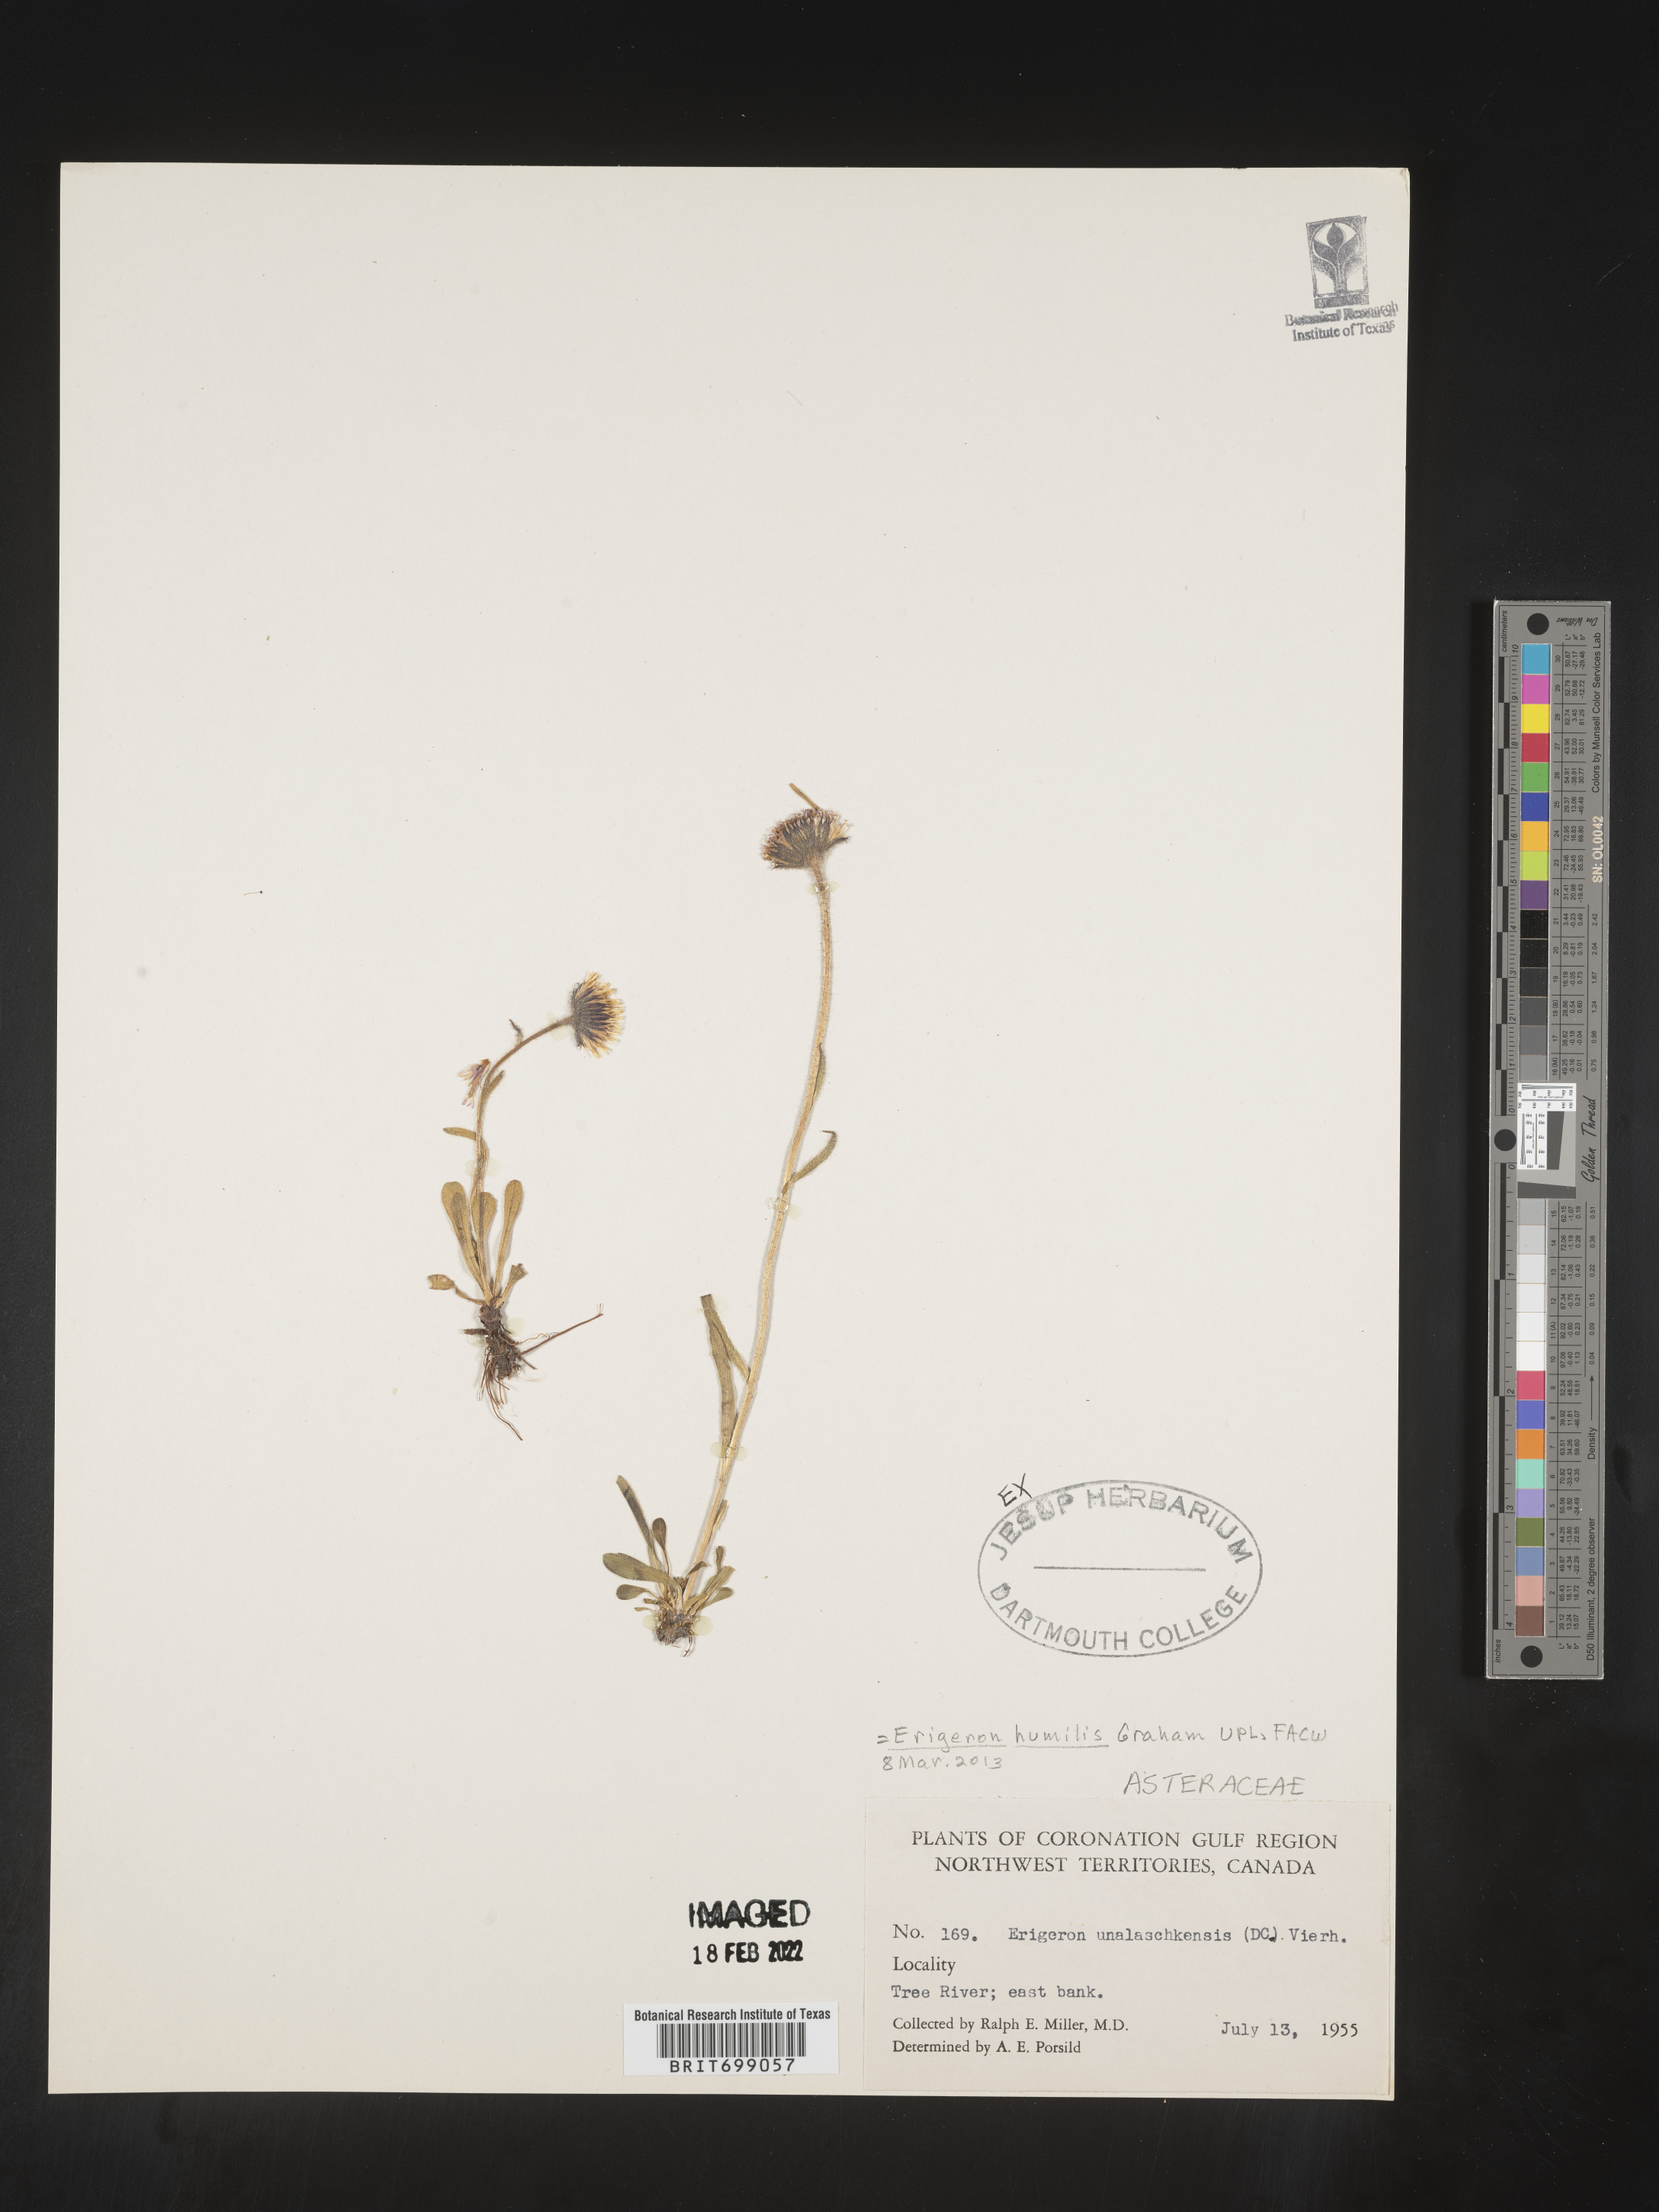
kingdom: Plantae
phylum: Tracheophyta
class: Magnoliopsida
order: Asterales
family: Asteraceae
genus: Erigeron
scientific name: Erigeron humilis
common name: Arctic-alpine fleabane
